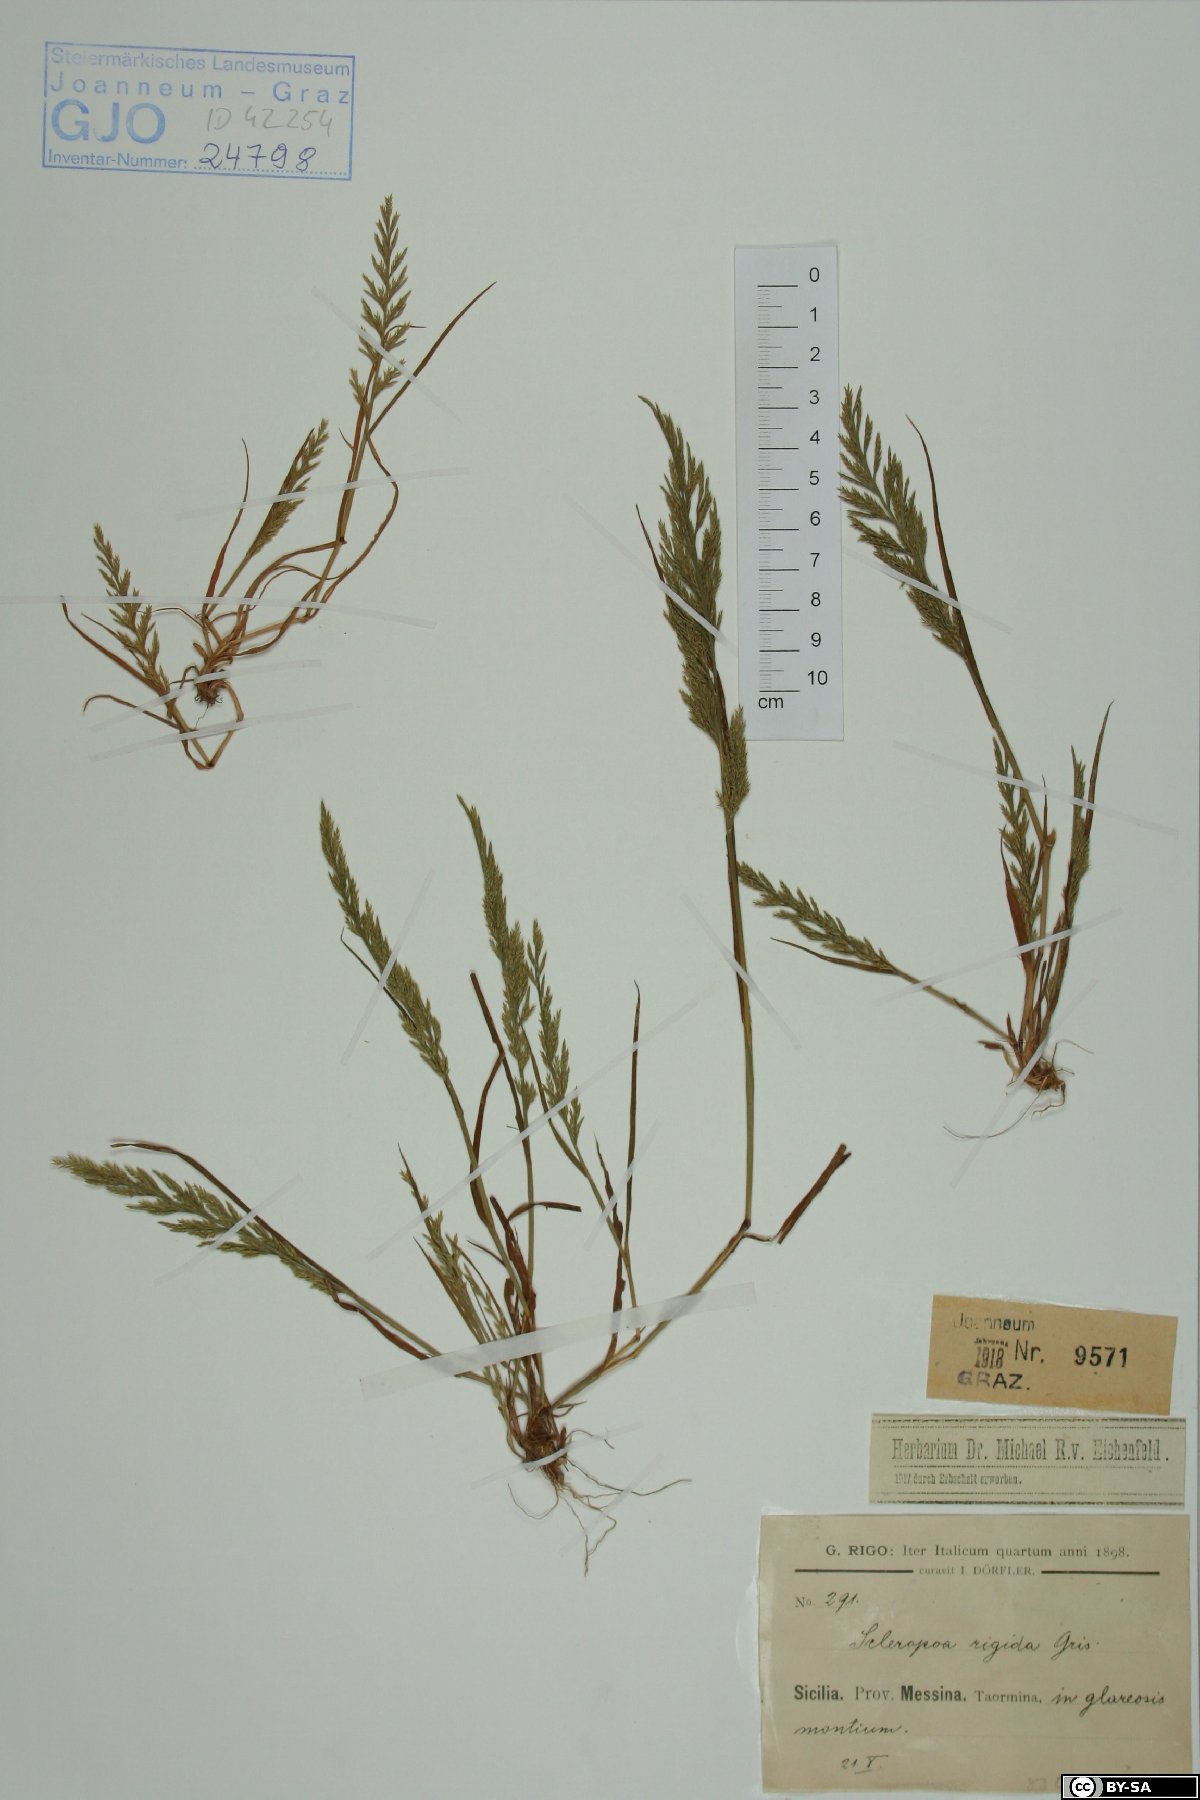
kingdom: Plantae
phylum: Tracheophyta
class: Liliopsida
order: Poales
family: Poaceae
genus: Catapodium
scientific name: Catapodium rigidum
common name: Fern-grass
